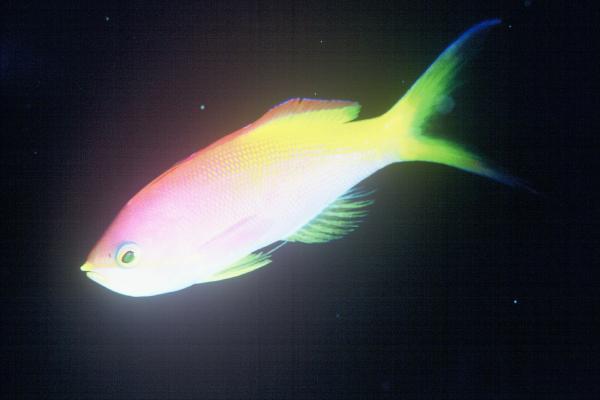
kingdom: Animalia
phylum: Chordata
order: Perciformes
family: Serranidae
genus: Nemanthias
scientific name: Nemanthias carberryi
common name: Threadfin anthias
